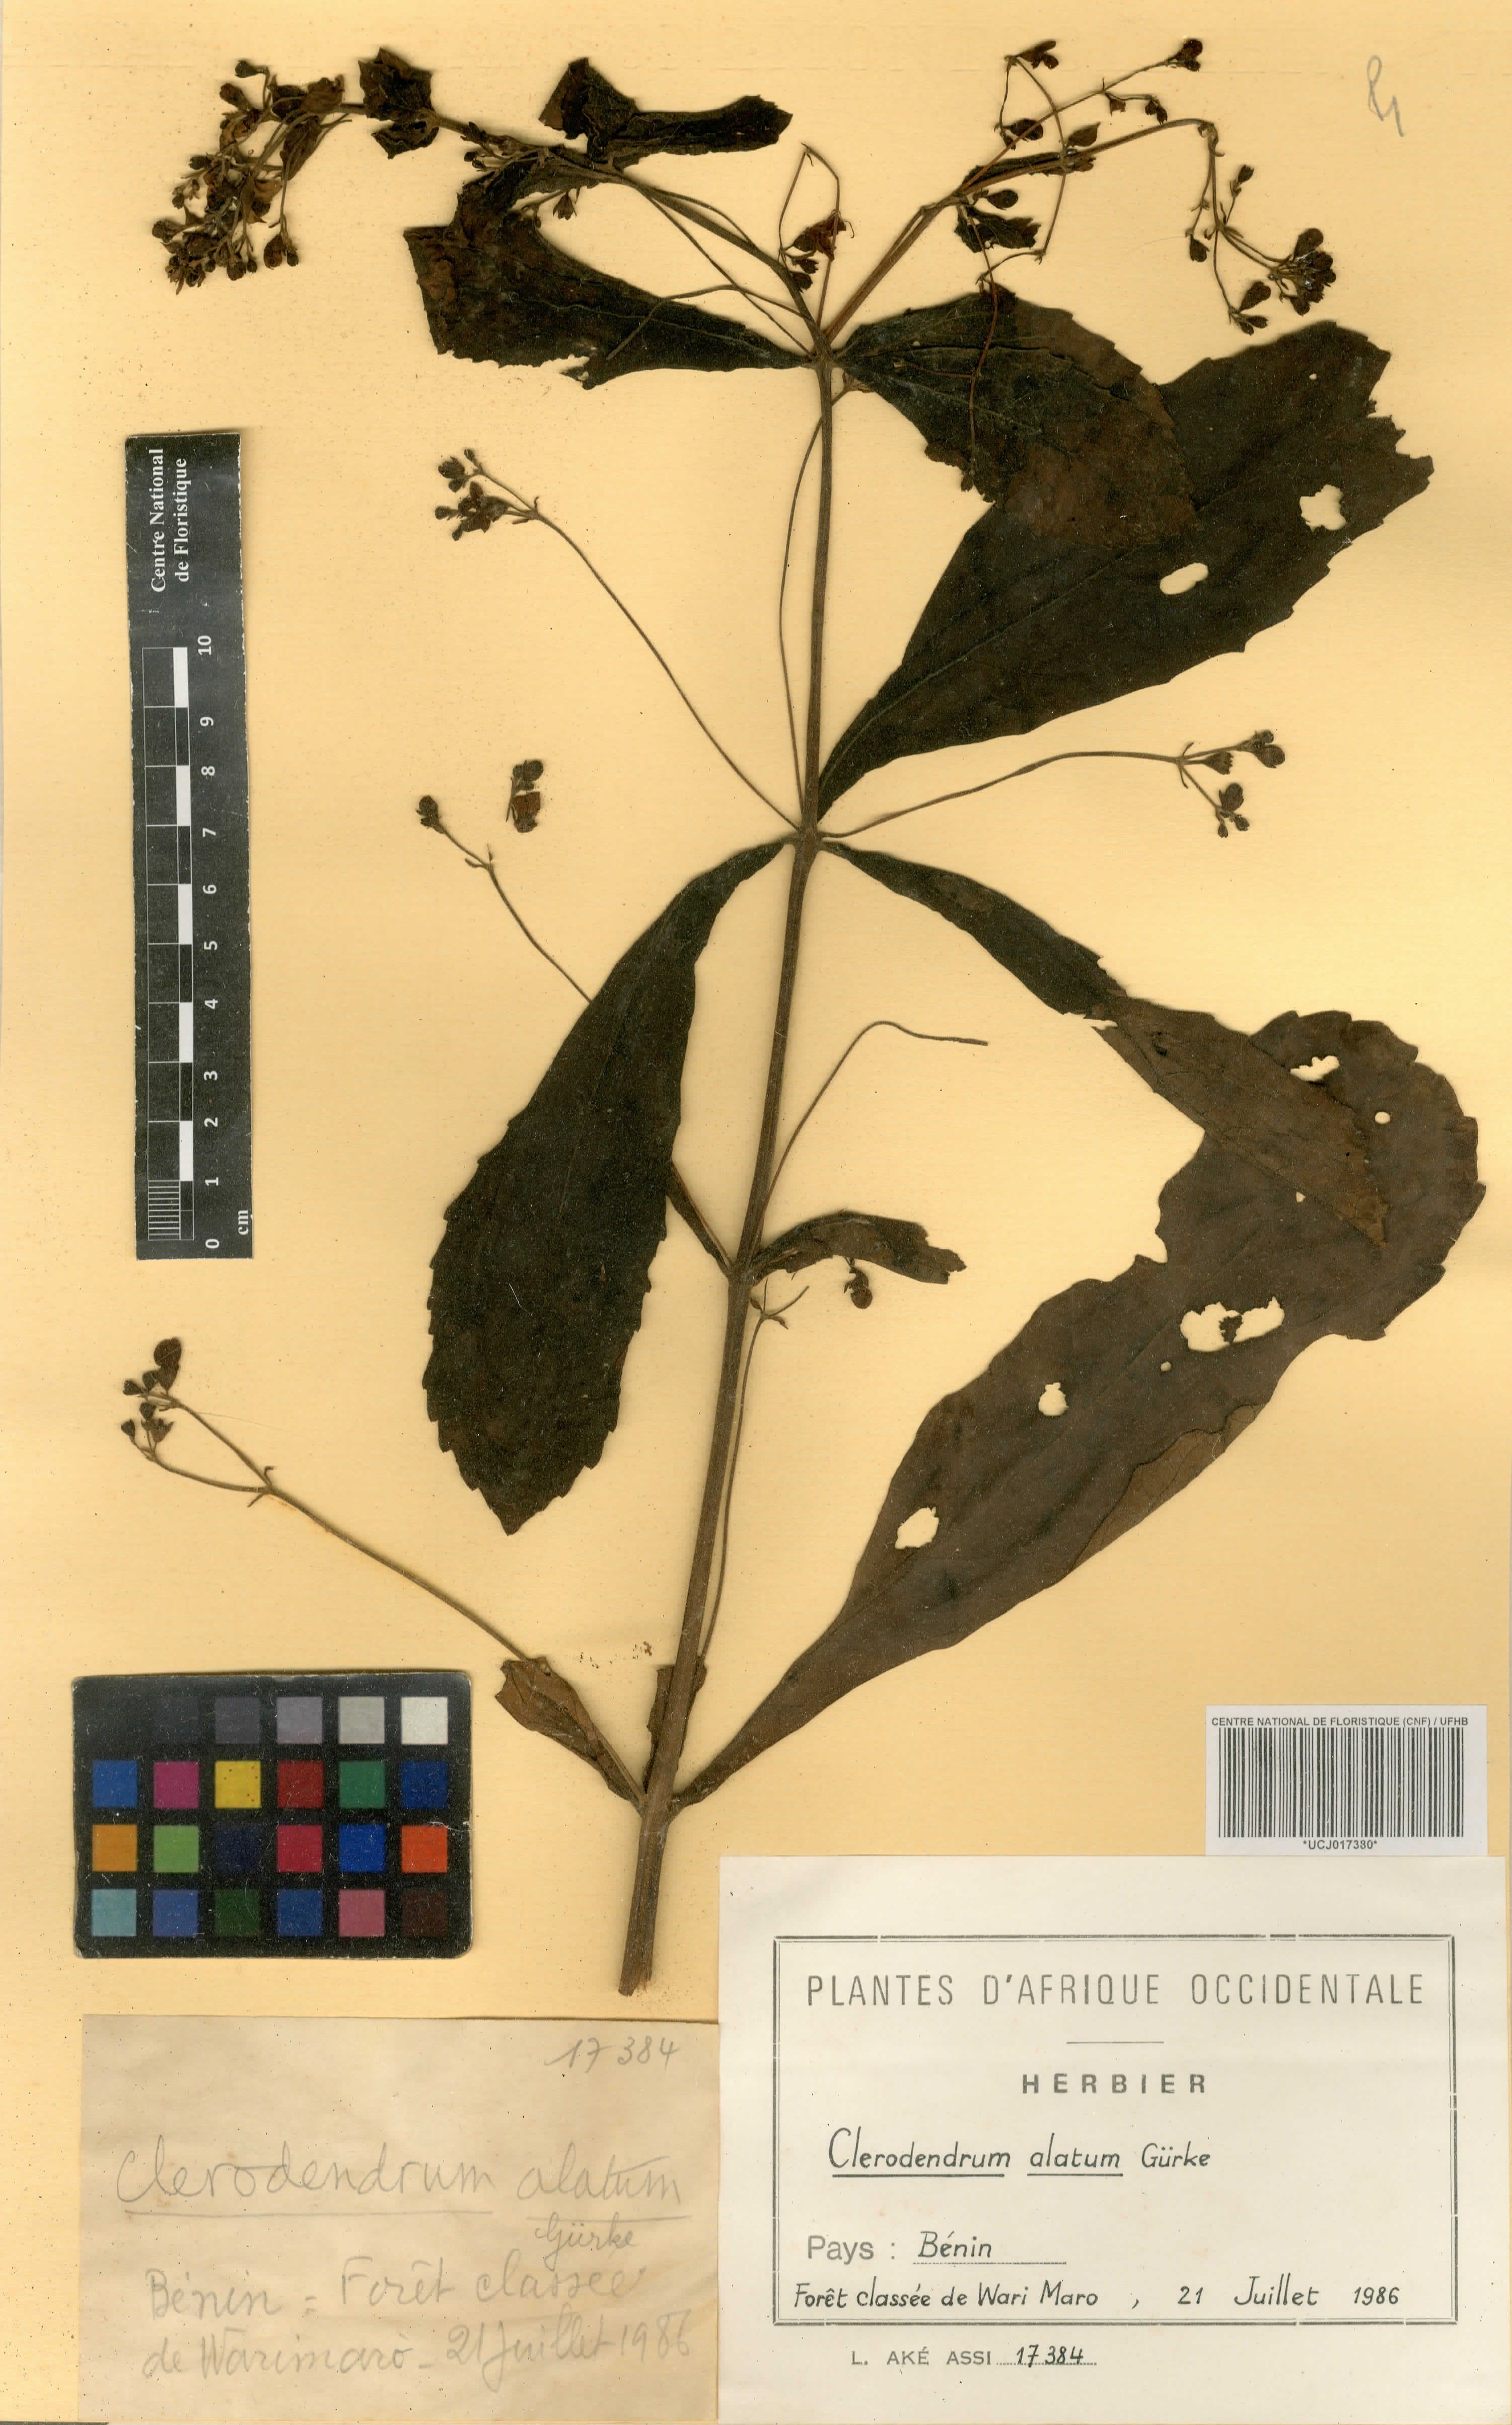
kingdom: Plantae
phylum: Tracheophyta
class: Magnoliopsida
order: Lamiales
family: Lamiaceae
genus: Rotheca
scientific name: Rotheca alata
